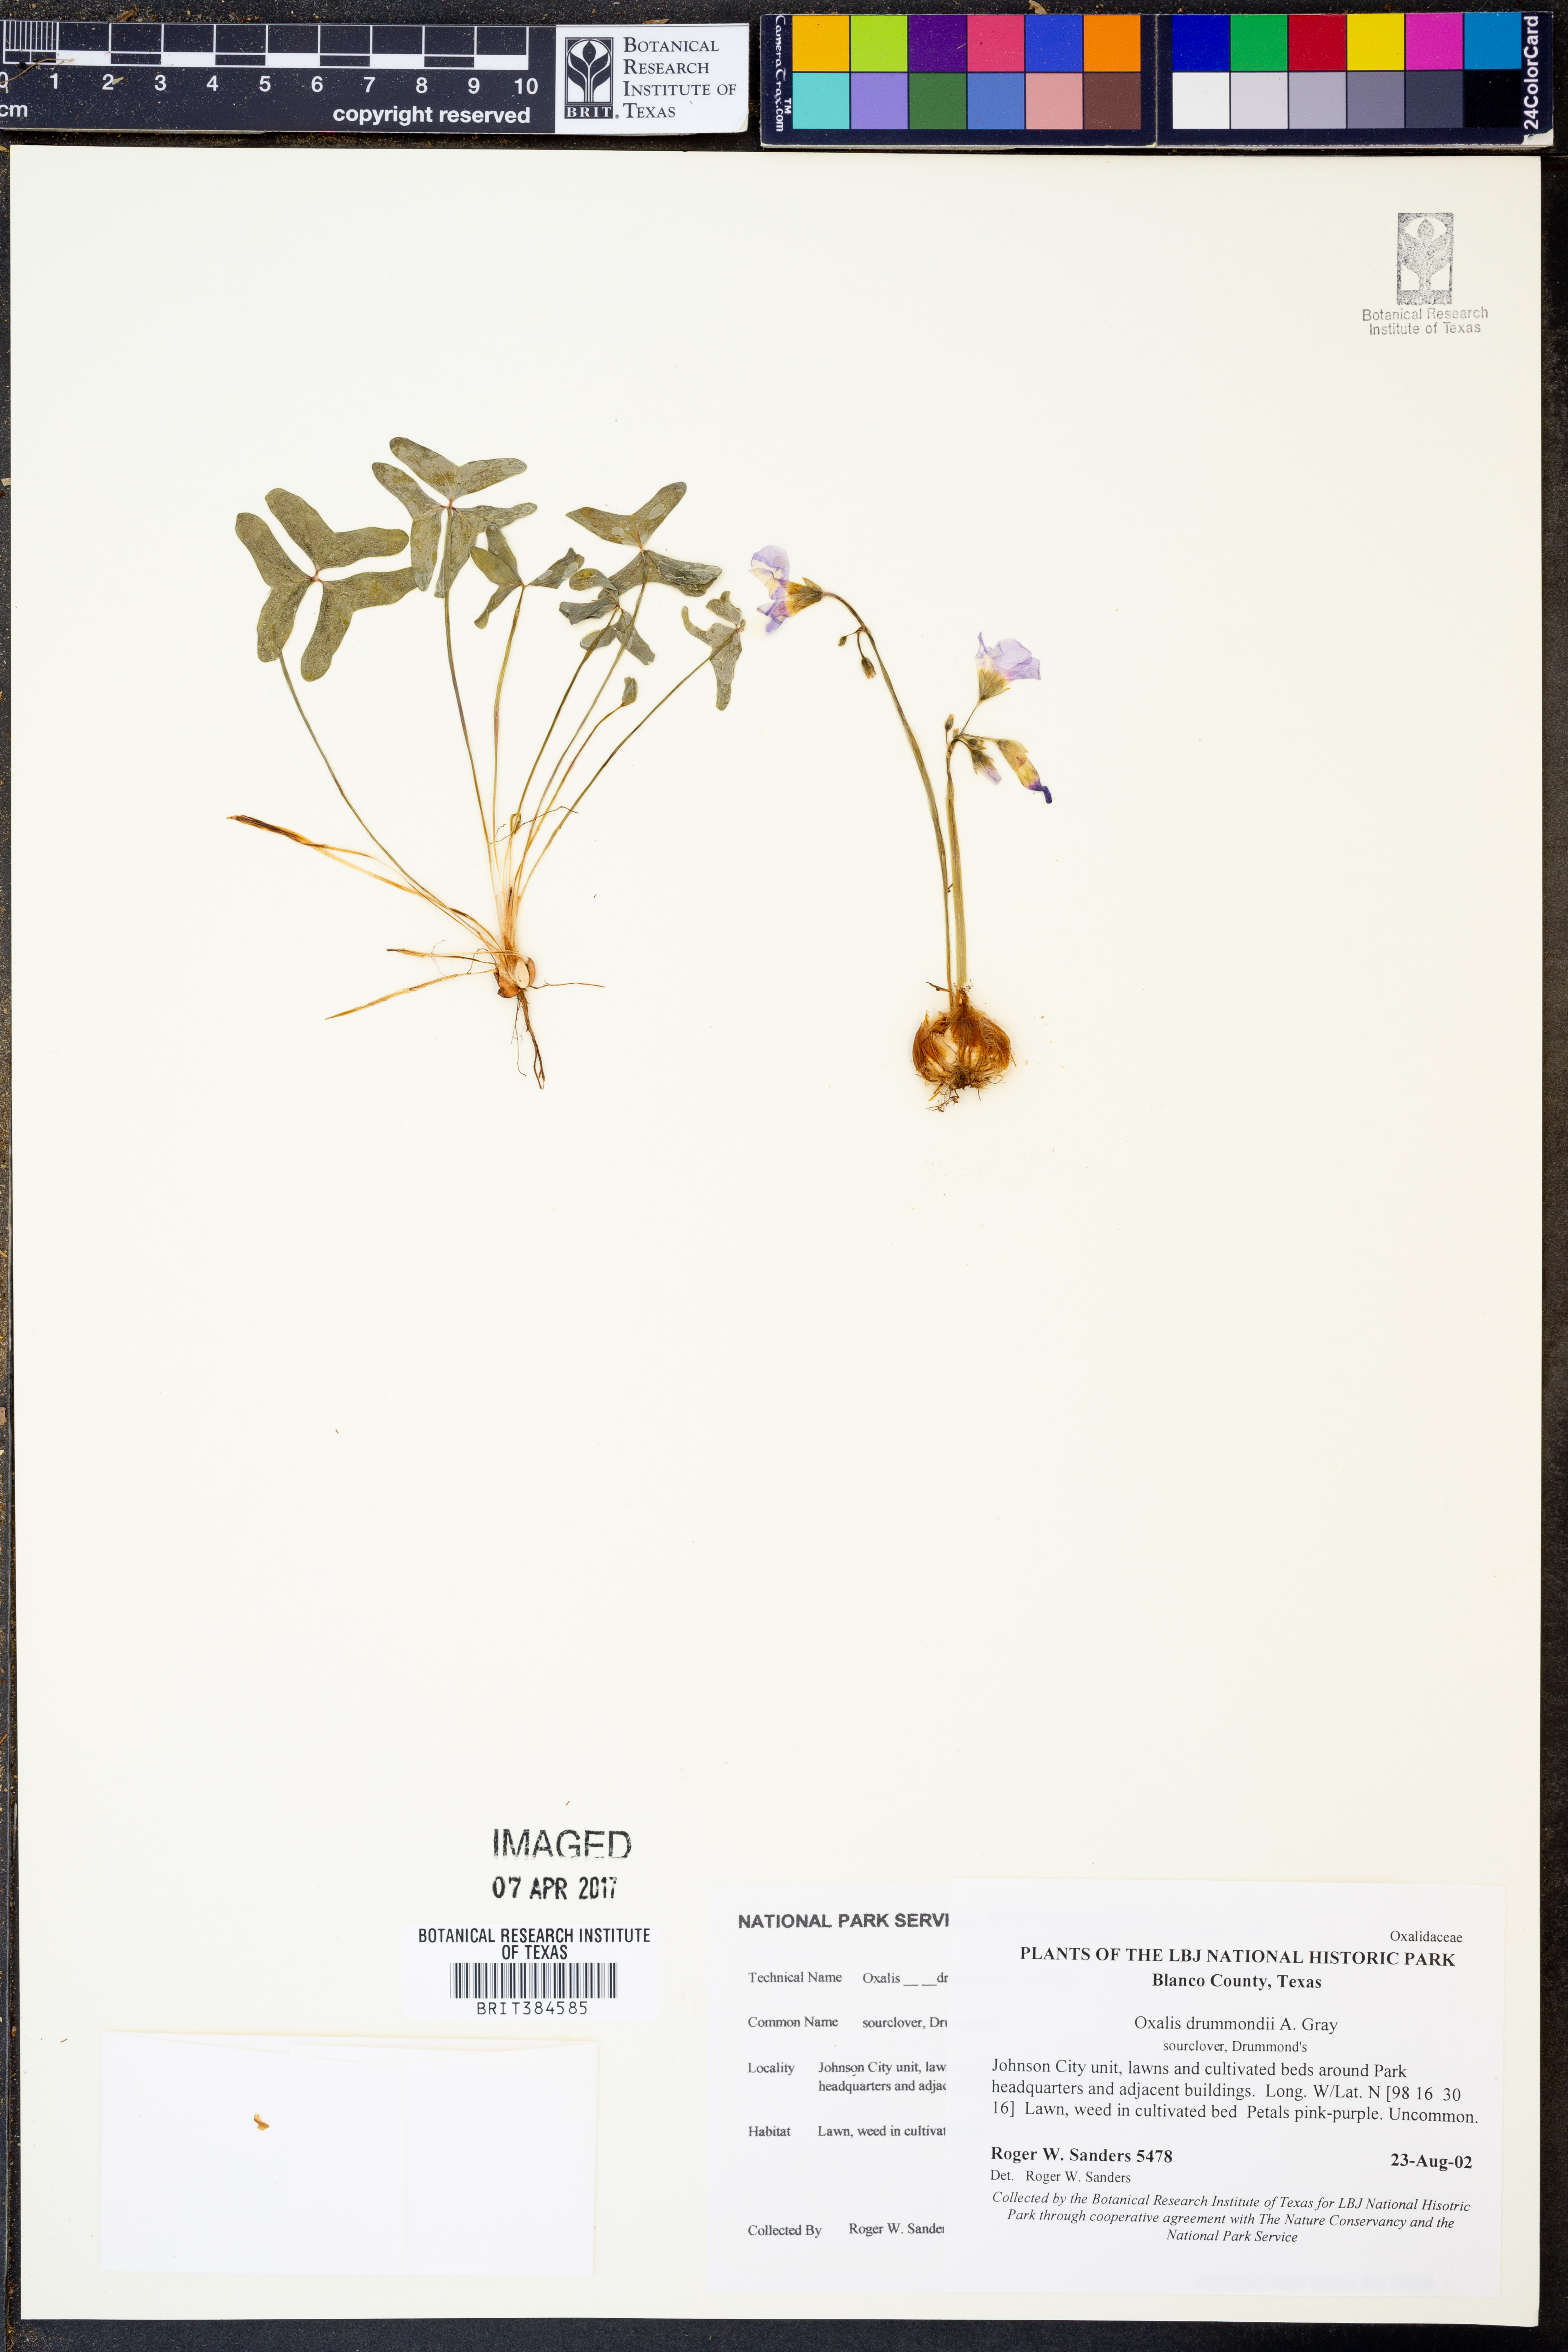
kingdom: Plantae
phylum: Tracheophyta
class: Magnoliopsida
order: Oxalidales
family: Oxalidaceae
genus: Oxalis
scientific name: Oxalis drummondii
